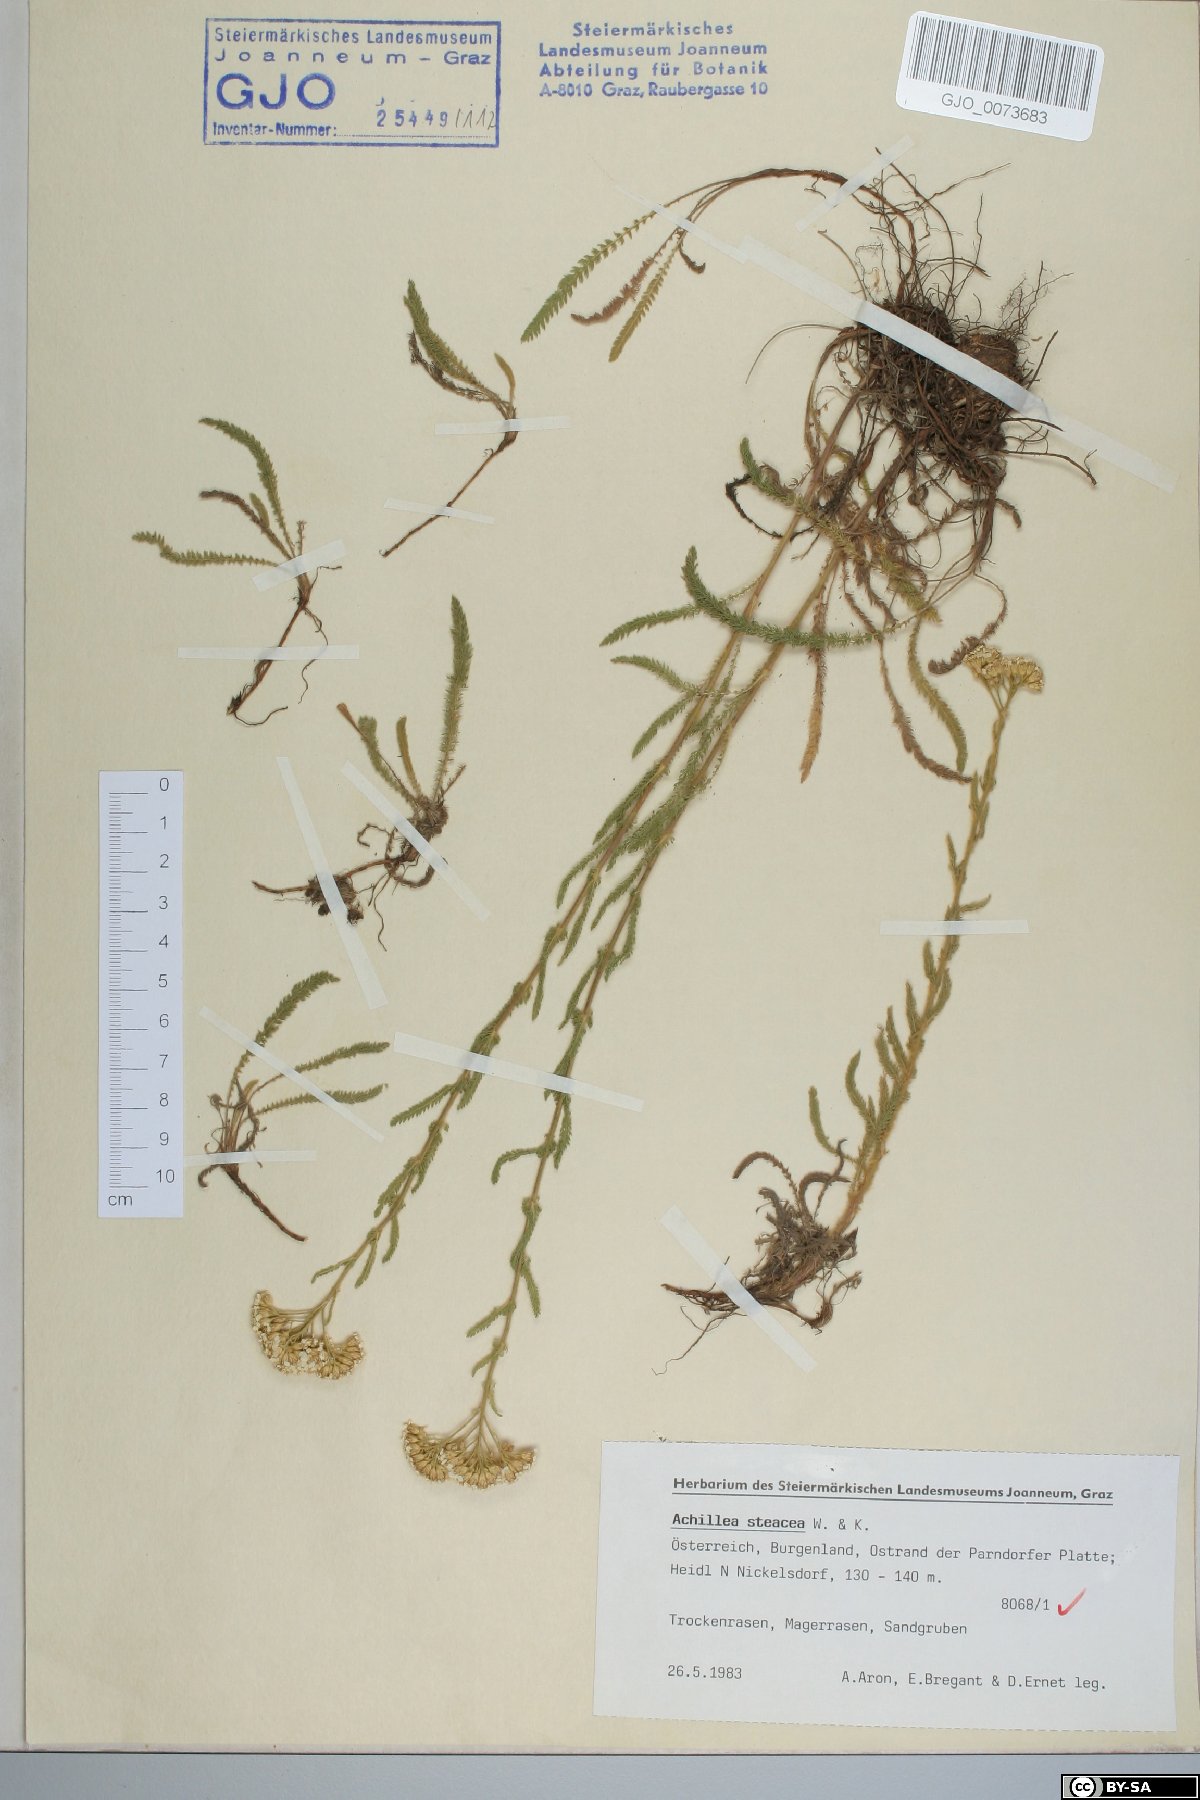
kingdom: Plantae
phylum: Tracheophyta
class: Magnoliopsida
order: Asterales
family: Asteraceae
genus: Achillea
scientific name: Achillea setacea
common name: Bristly yarrow
